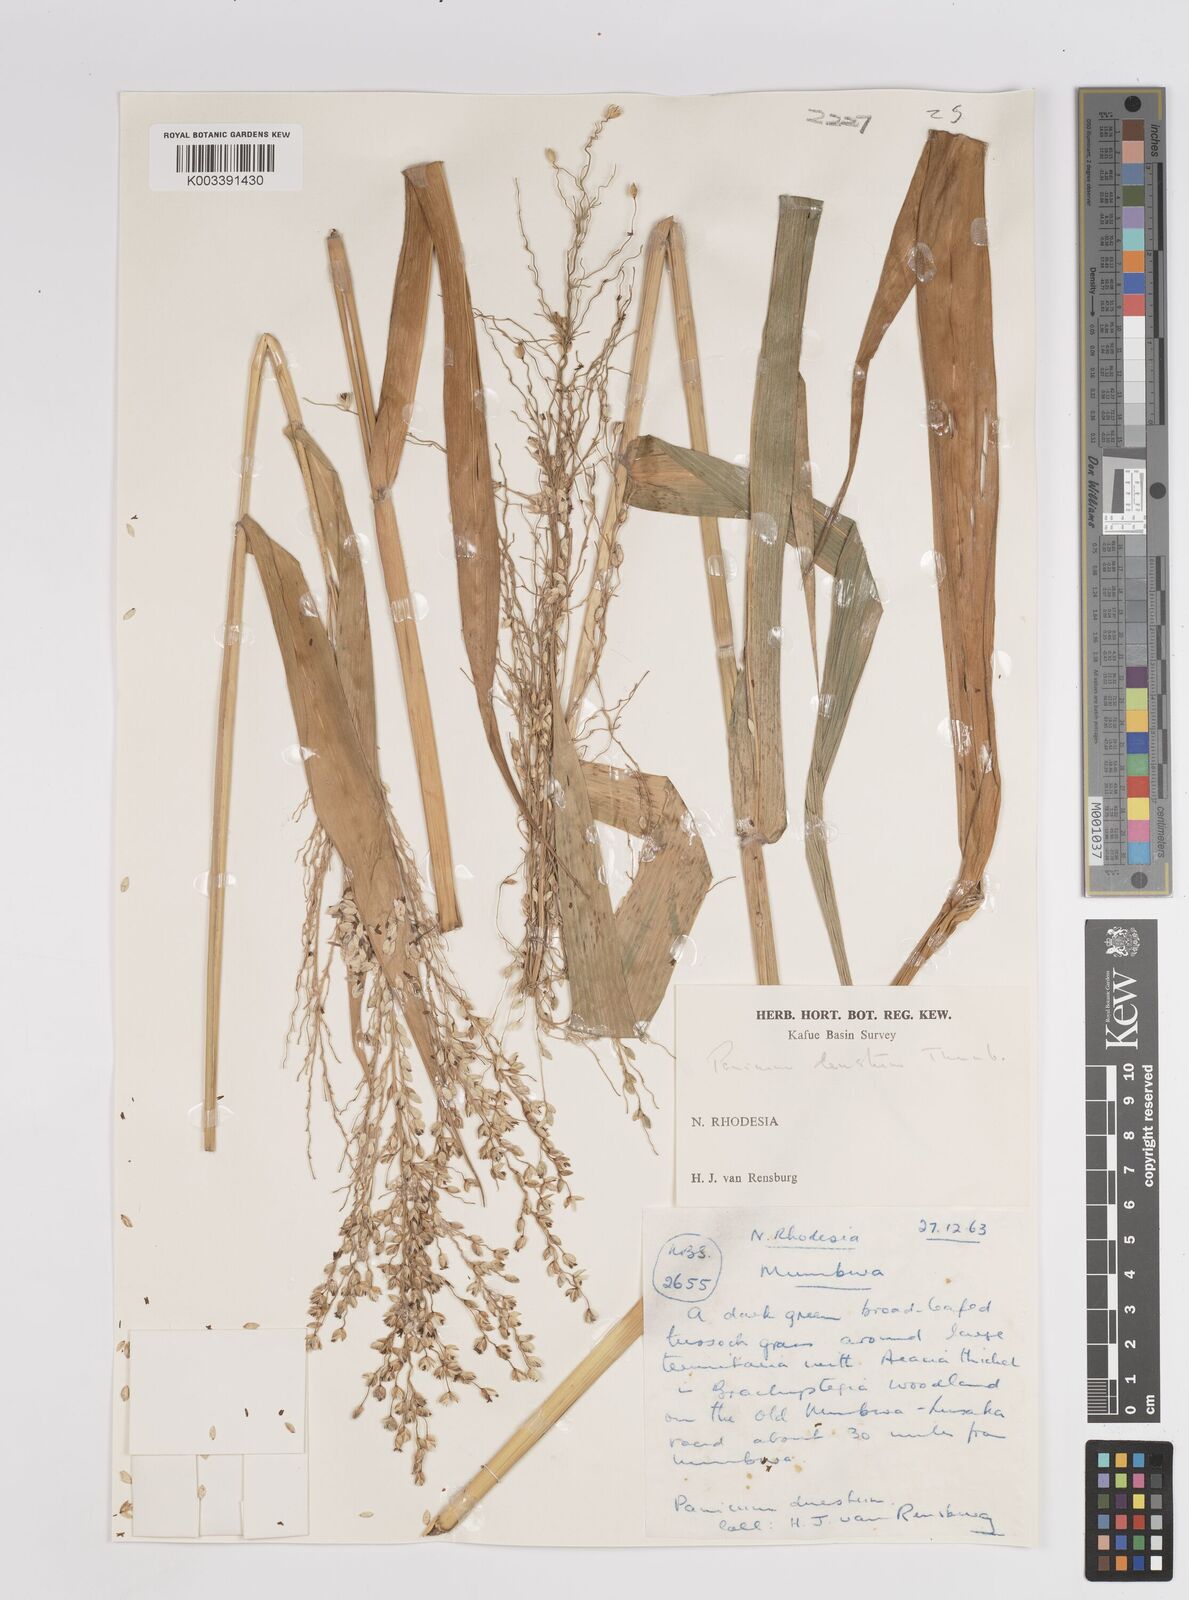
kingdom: Plantae
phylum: Tracheophyta
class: Liliopsida
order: Poales
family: Poaceae
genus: Panicum
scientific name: Panicum deustum
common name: Reed panicum
